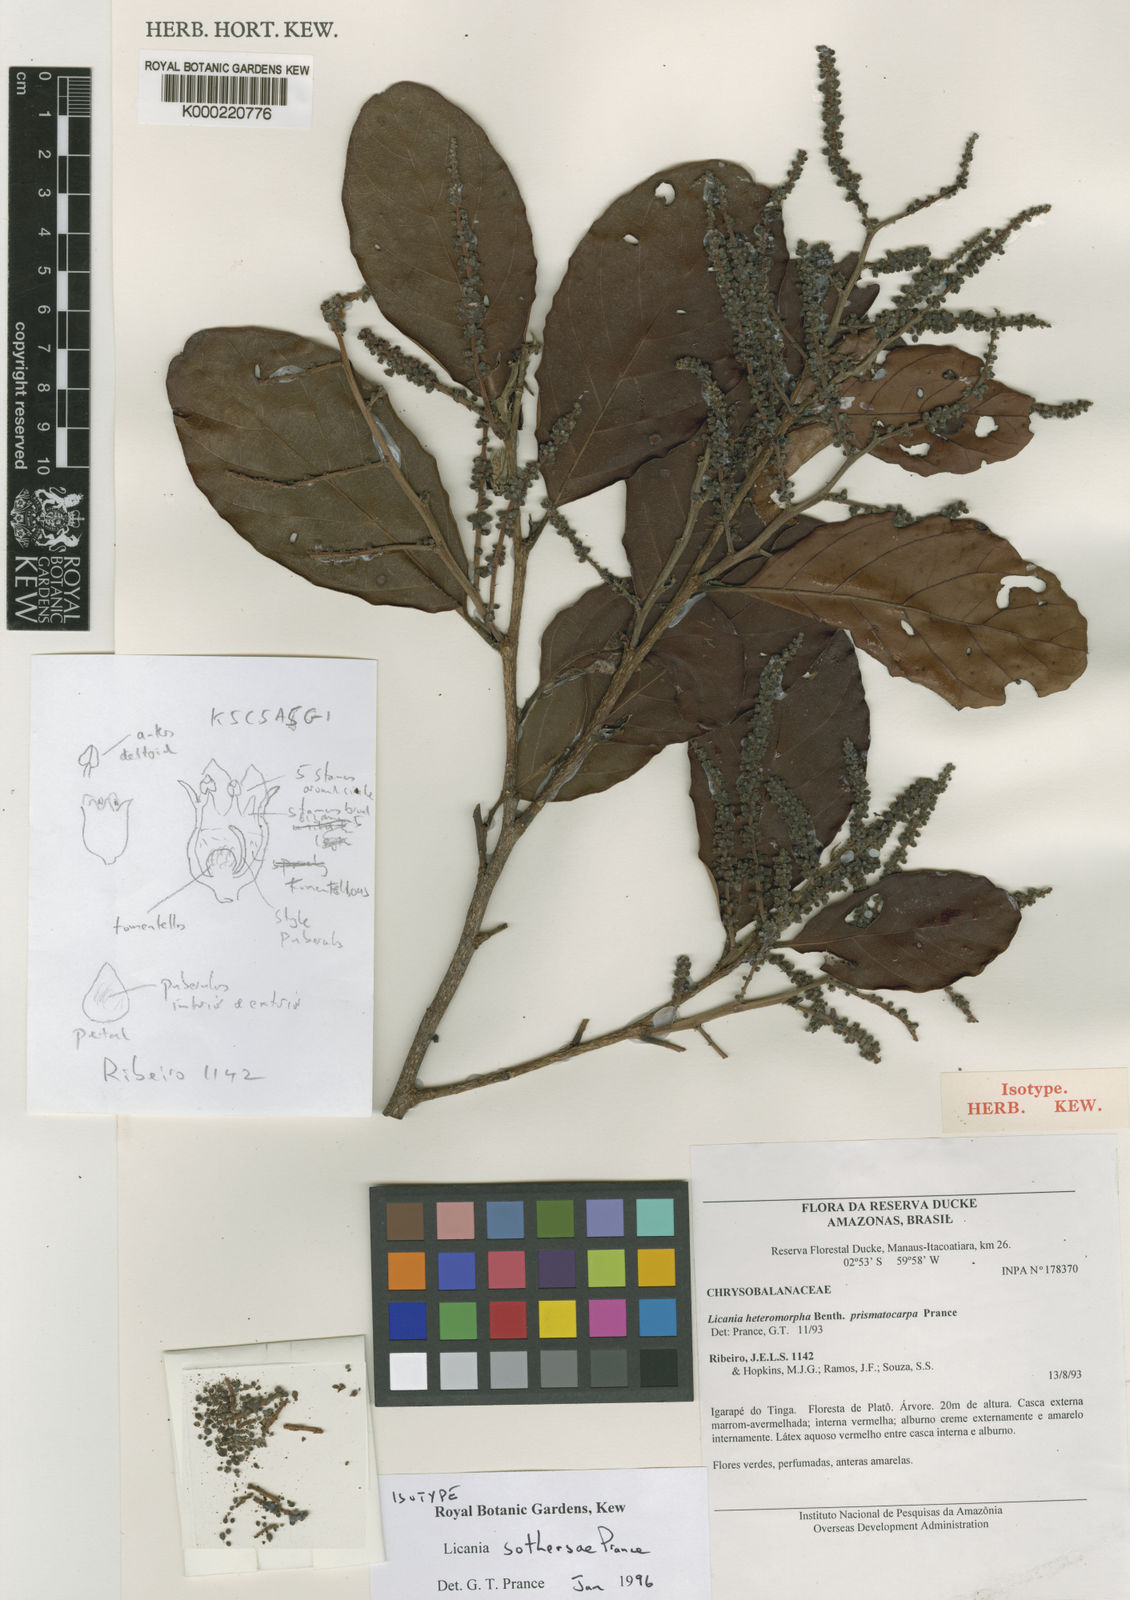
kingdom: Plantae
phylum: Tracheophyta
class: Magnoliopsida
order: Malpighiales
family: Chrysobalanaceae
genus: Hymenopus
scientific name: Hymenopus sothersiae
